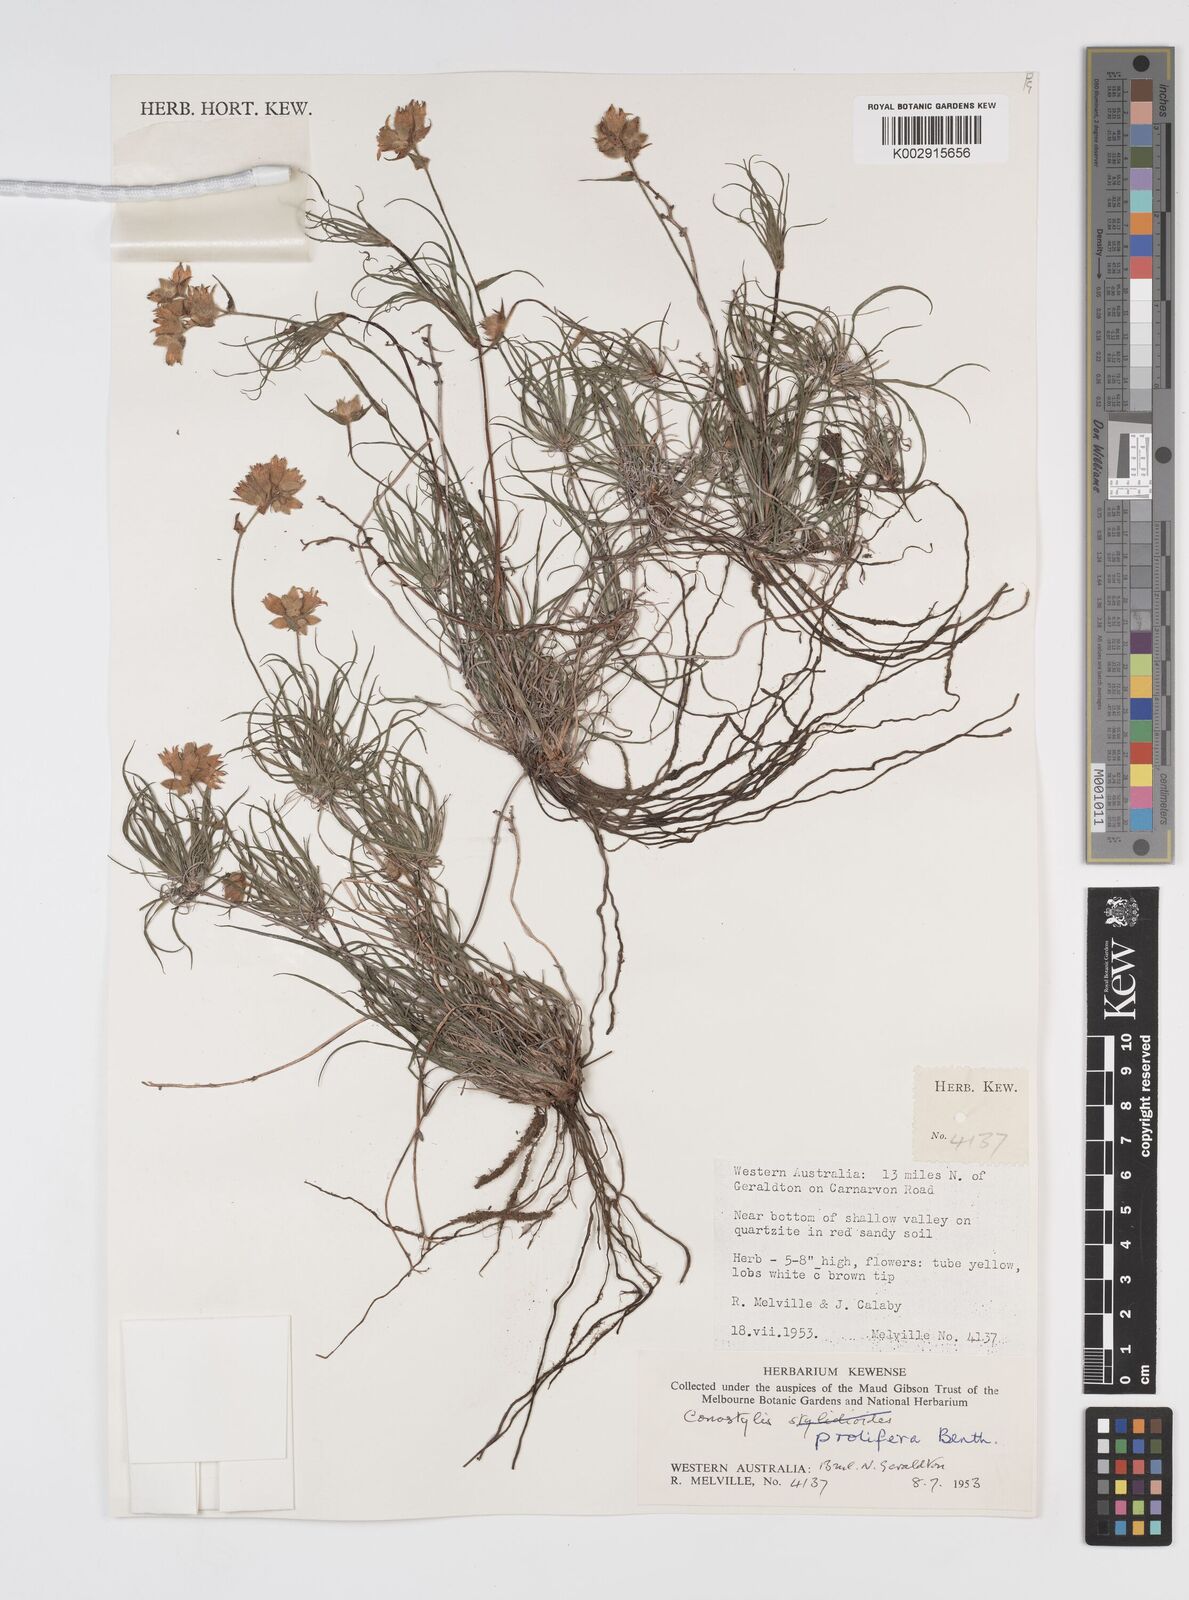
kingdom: Plantae
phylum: Tracheophyta
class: Liliopsida
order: Commelinales
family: Haemodoraceae
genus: Conostylis
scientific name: Conostylis stylidioides
